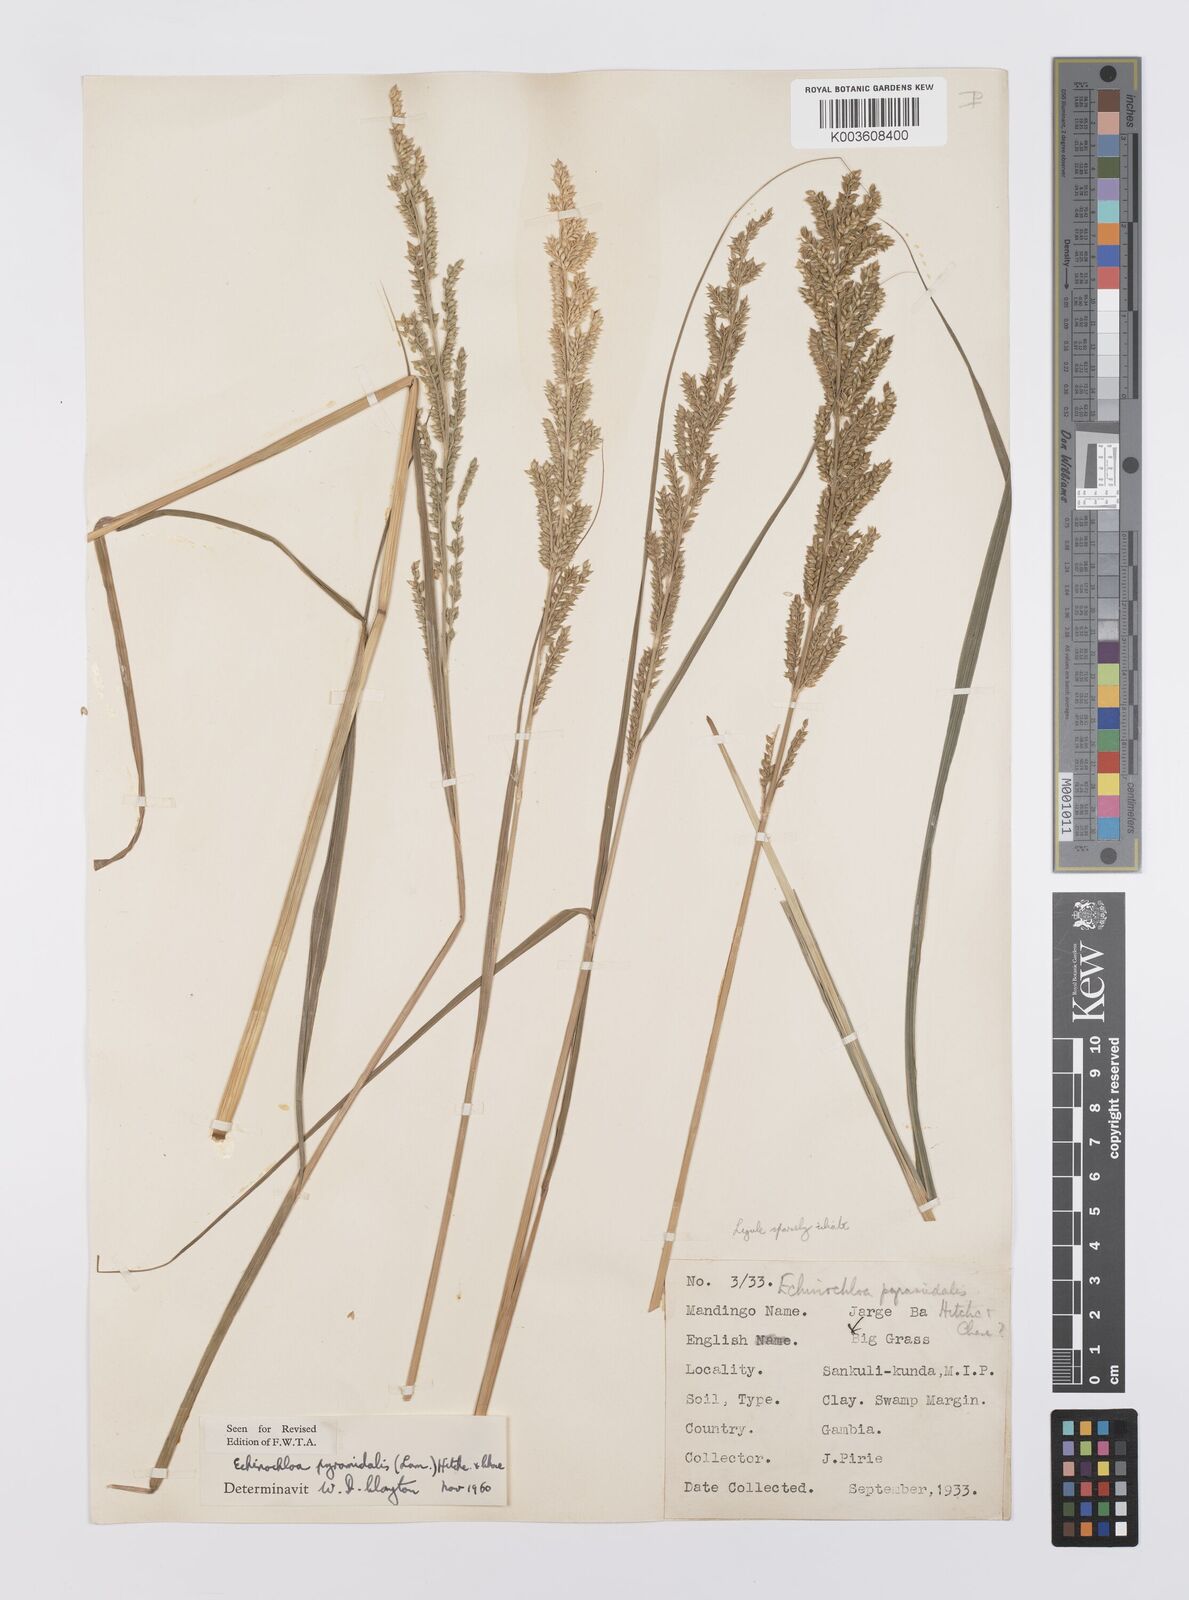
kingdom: Plantae
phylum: Tracheophyta
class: Liliopsida
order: Poales
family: Poaceae
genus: Echinochloa
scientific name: Echinochloa pyramidalis
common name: Antelope grass
